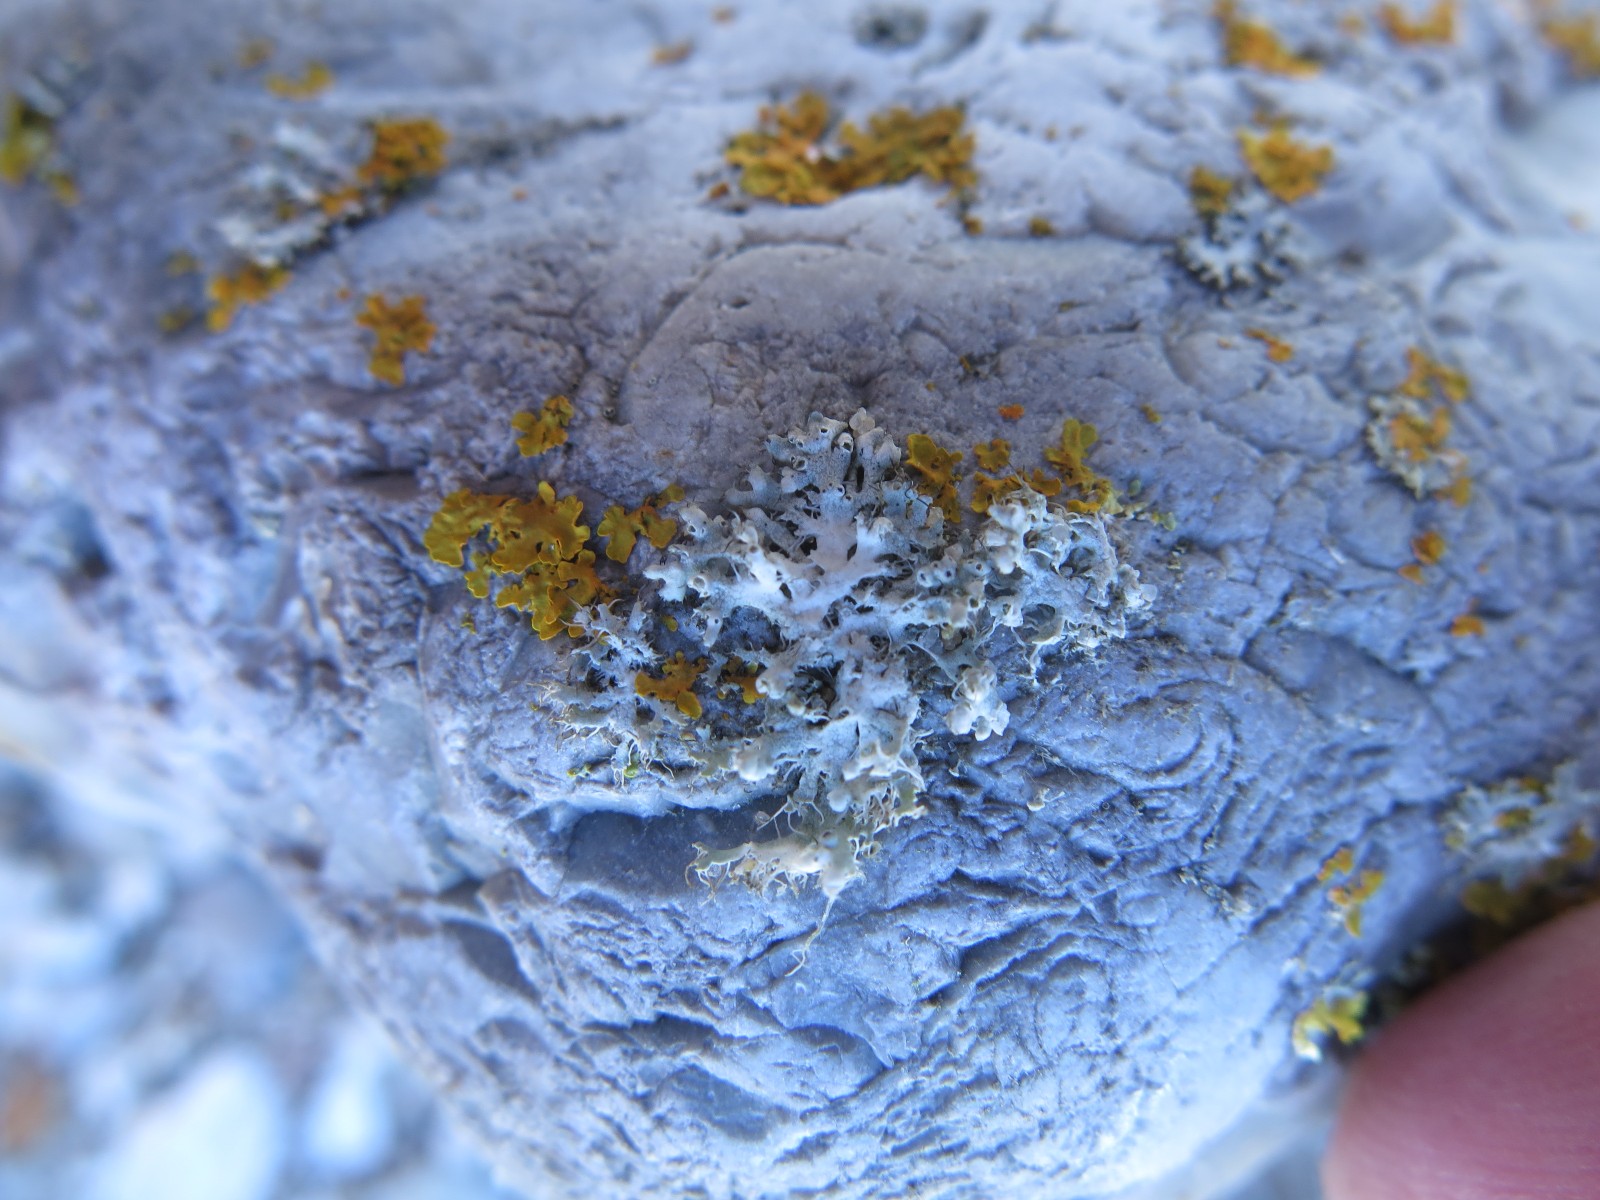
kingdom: Fungi
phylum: Ascomycota
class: Lecanoromycetes
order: Caliciales
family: Physciaceae
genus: Physcia
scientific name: Physcia adscendens
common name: hætte-rosetlav
